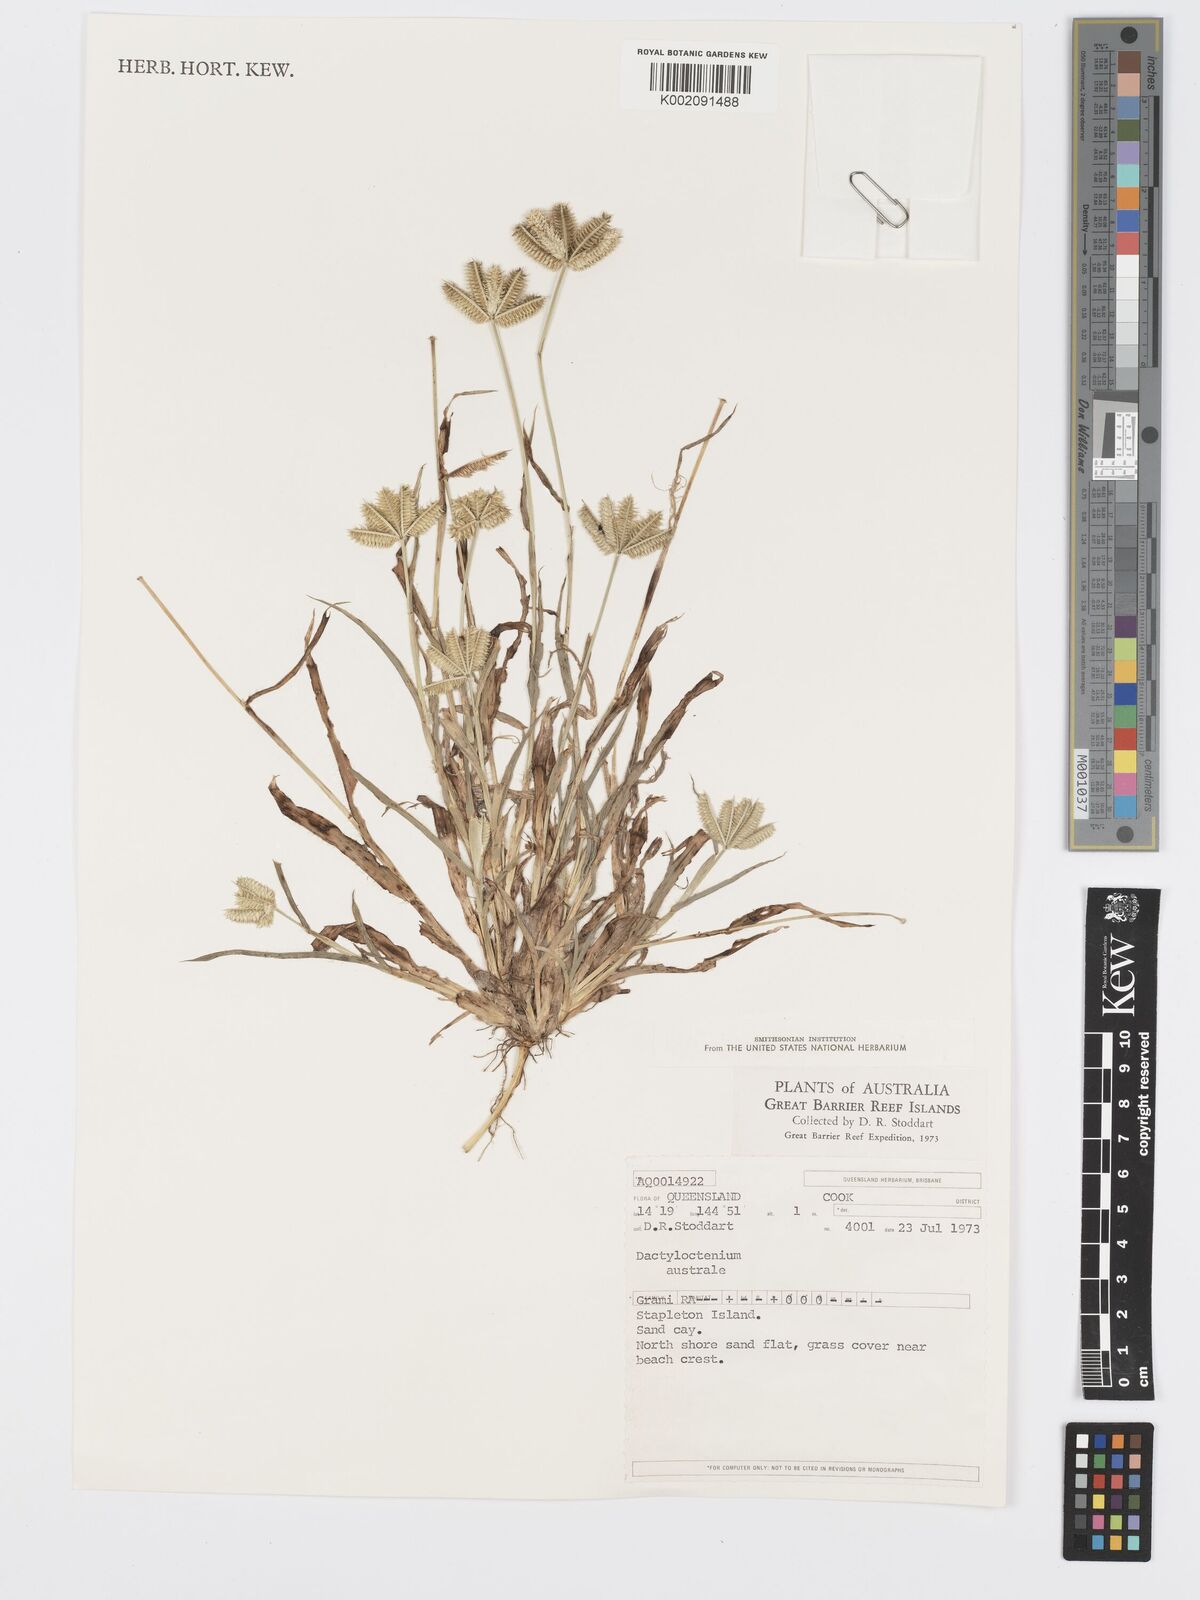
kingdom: Plantae
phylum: Tracheophyta
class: Liliopsida
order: Poales
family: Poaceae
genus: Dactyloctenium
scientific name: Dactyloctenium aegyptium
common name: Egyptian grass
